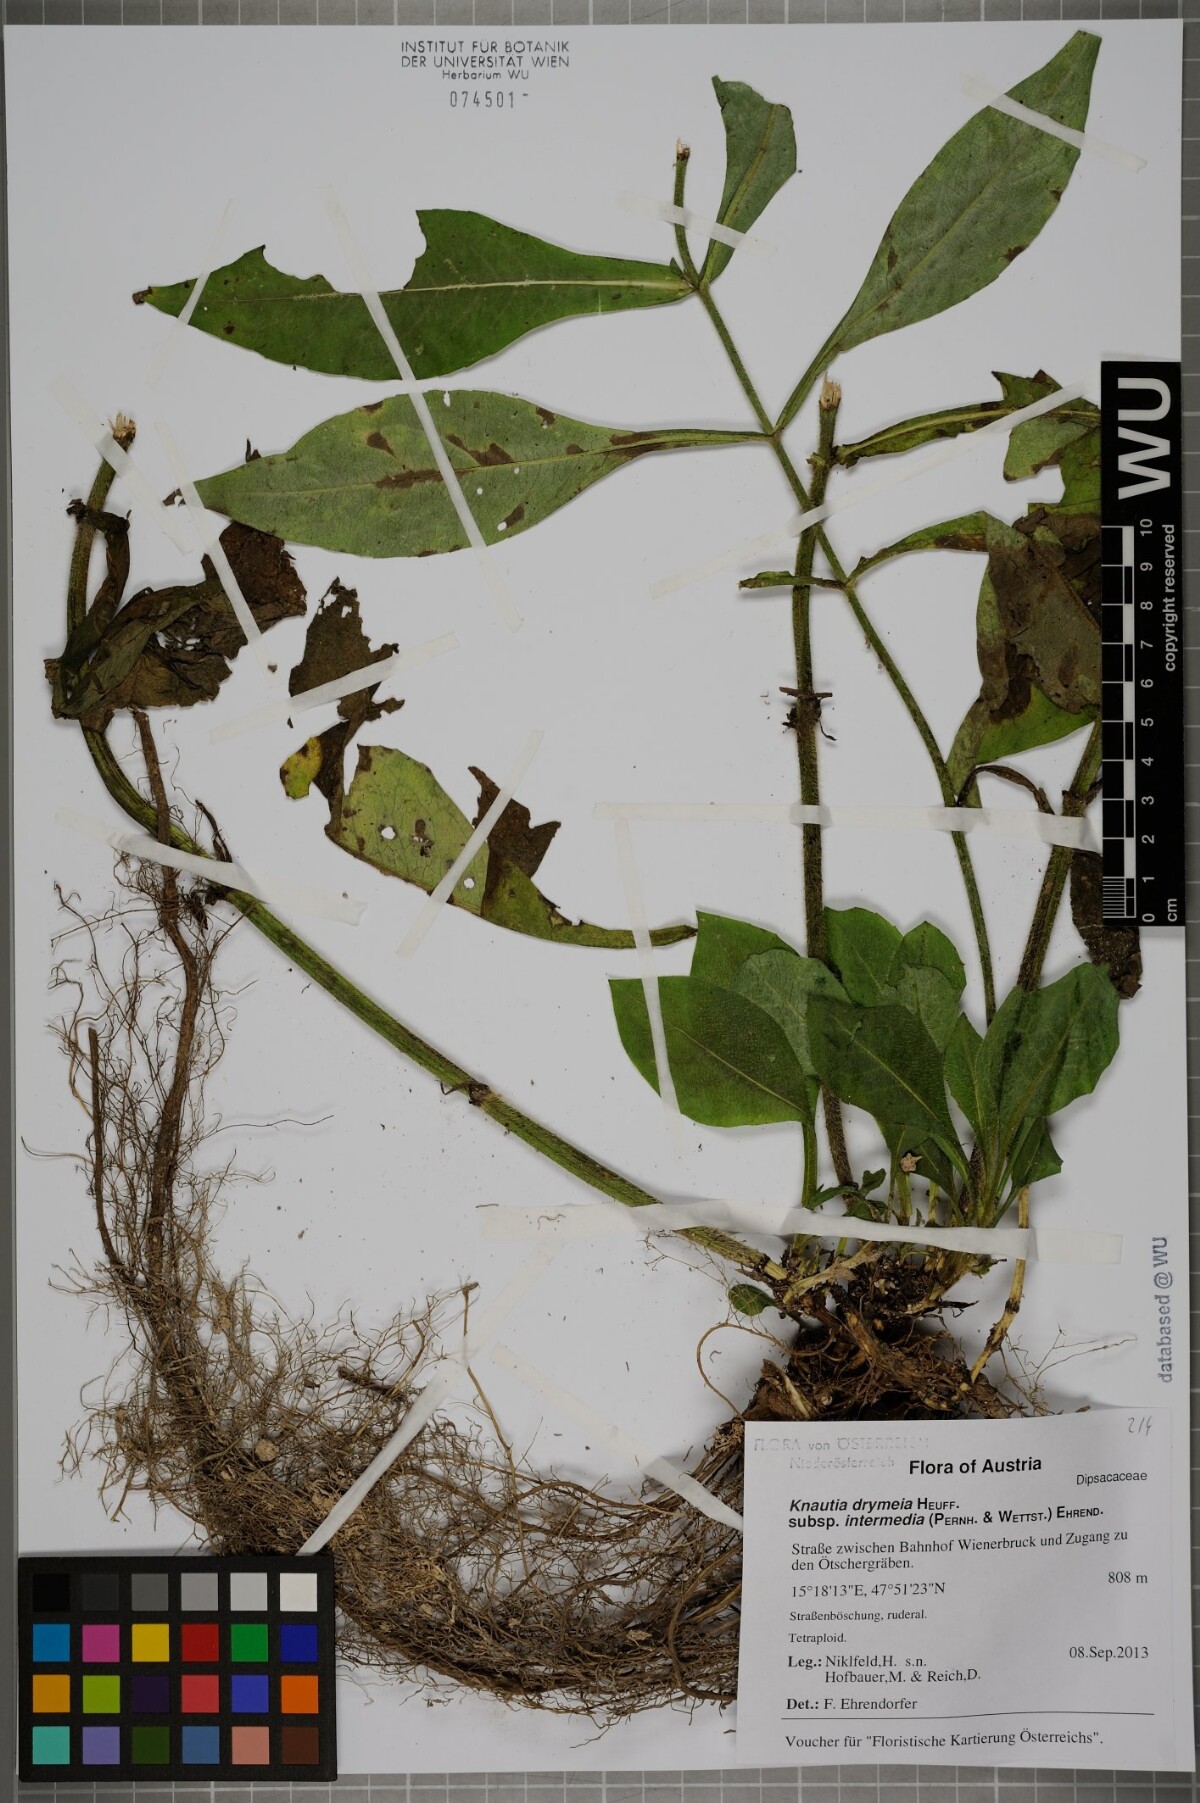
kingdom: Plantae
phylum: Tracheophyta
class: Magnoliopsida
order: Dipsacales
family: Caprifoliaceae
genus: Knautia
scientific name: Knautia drymeia
